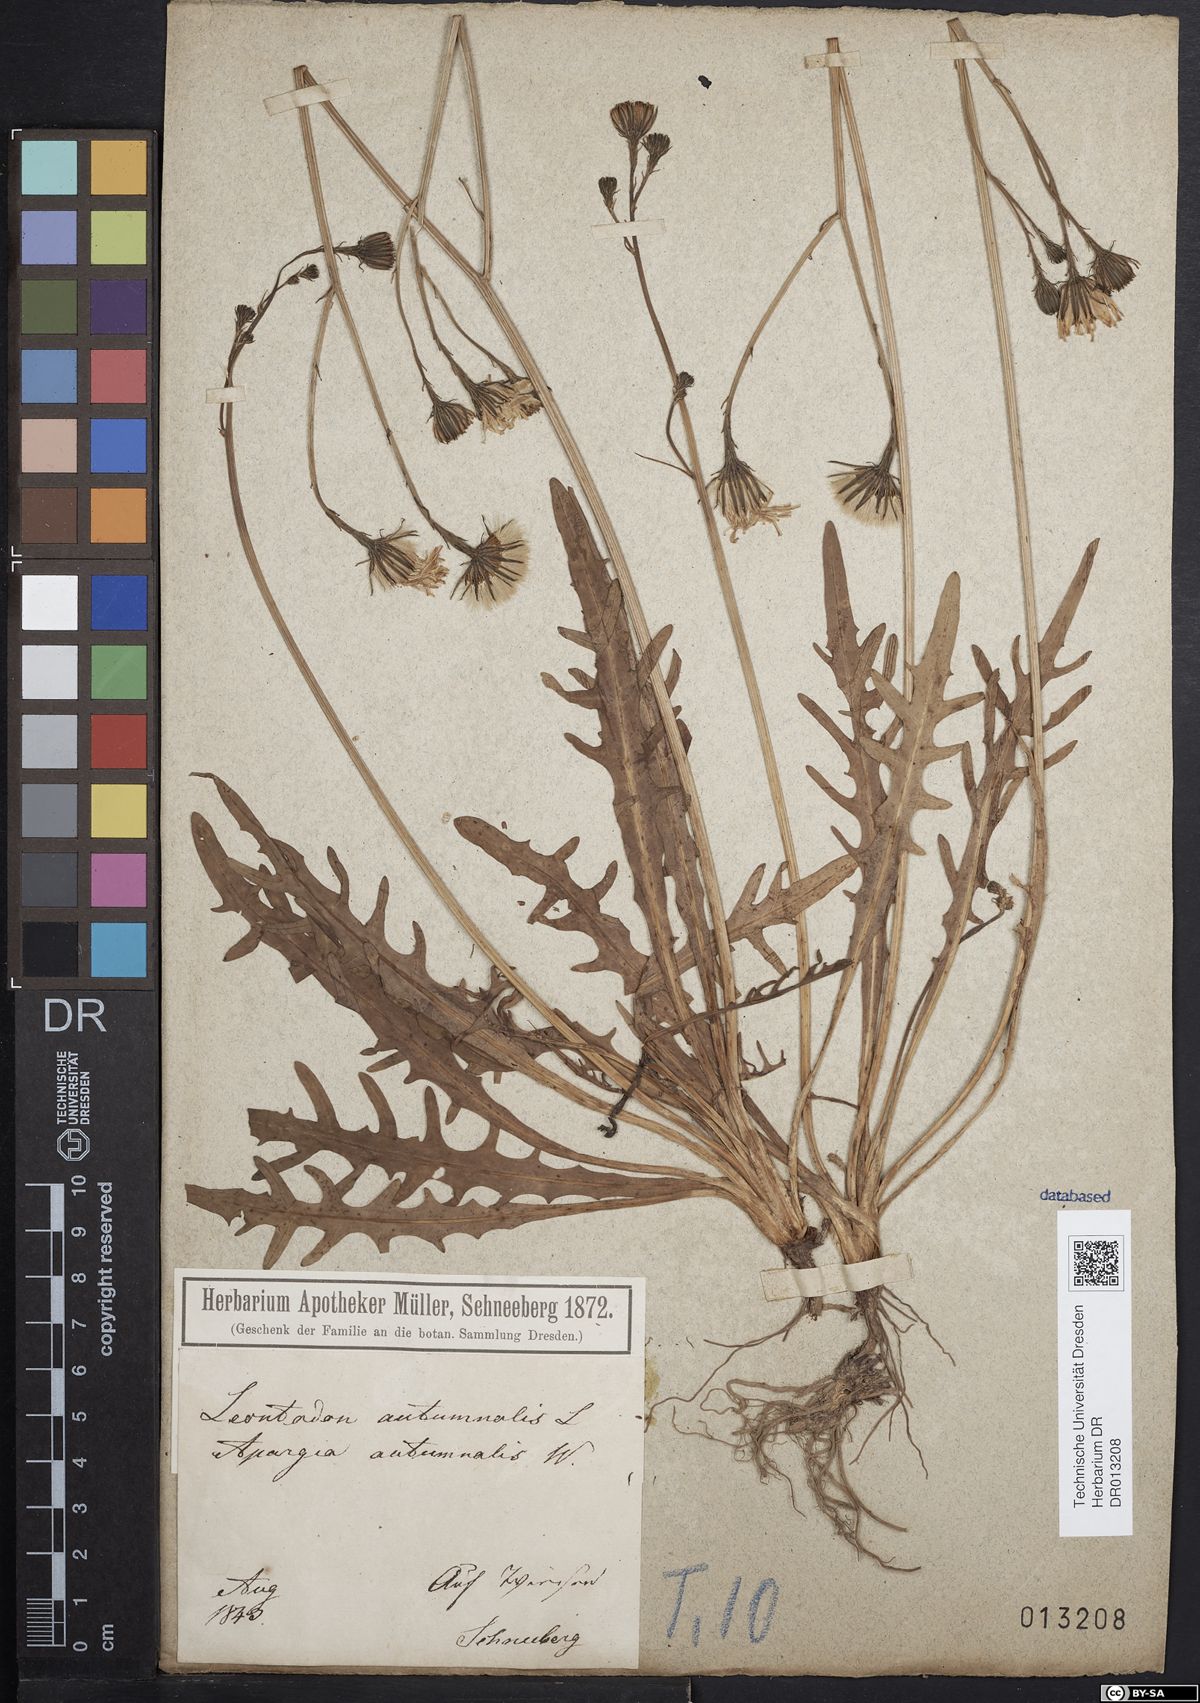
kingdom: Plantae
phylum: Tracheophyta
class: Magnoliopsida
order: Asterales
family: Asteraceae
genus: Scorzoneroides
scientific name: Scorzoneroides autumnalis
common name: Autumn hawkbit
